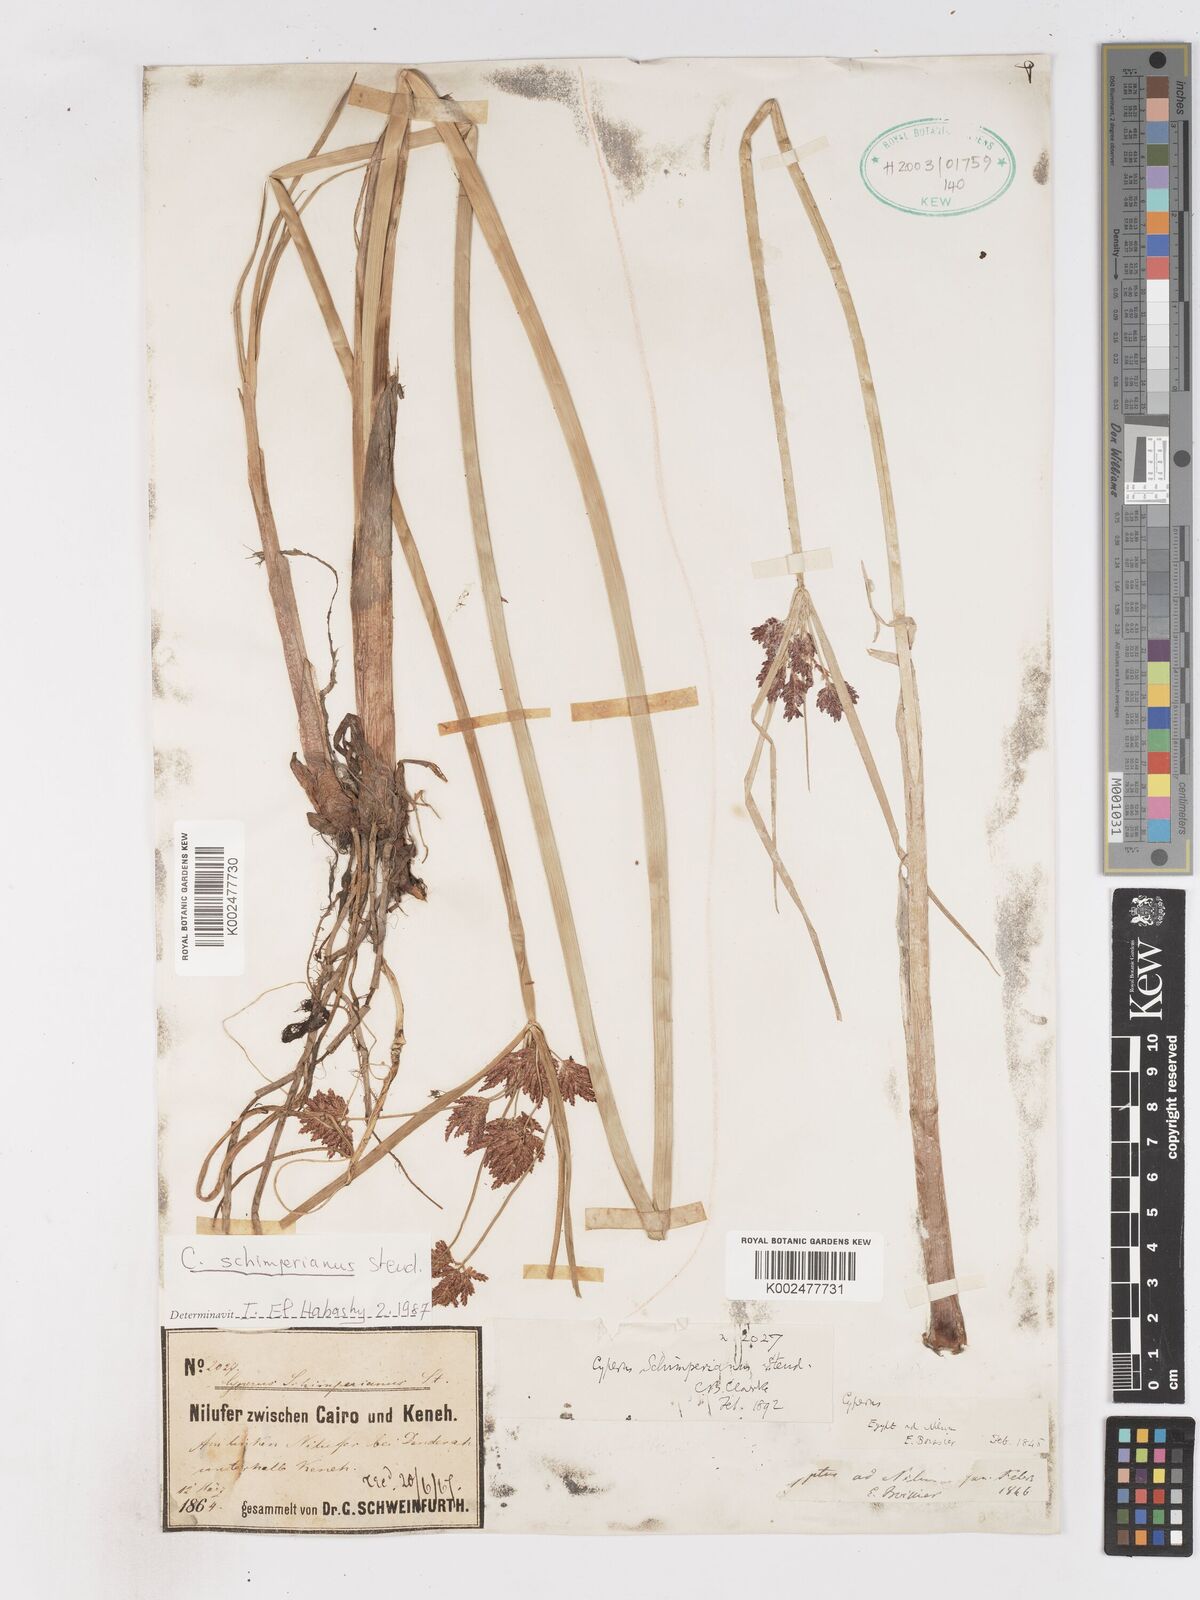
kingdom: Plantae
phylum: Tracheophyta
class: Liliopsida
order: Poales
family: Cyperaceae
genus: Cyperus
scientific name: Cyperus schimperianus
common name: Schimper flatsedge
